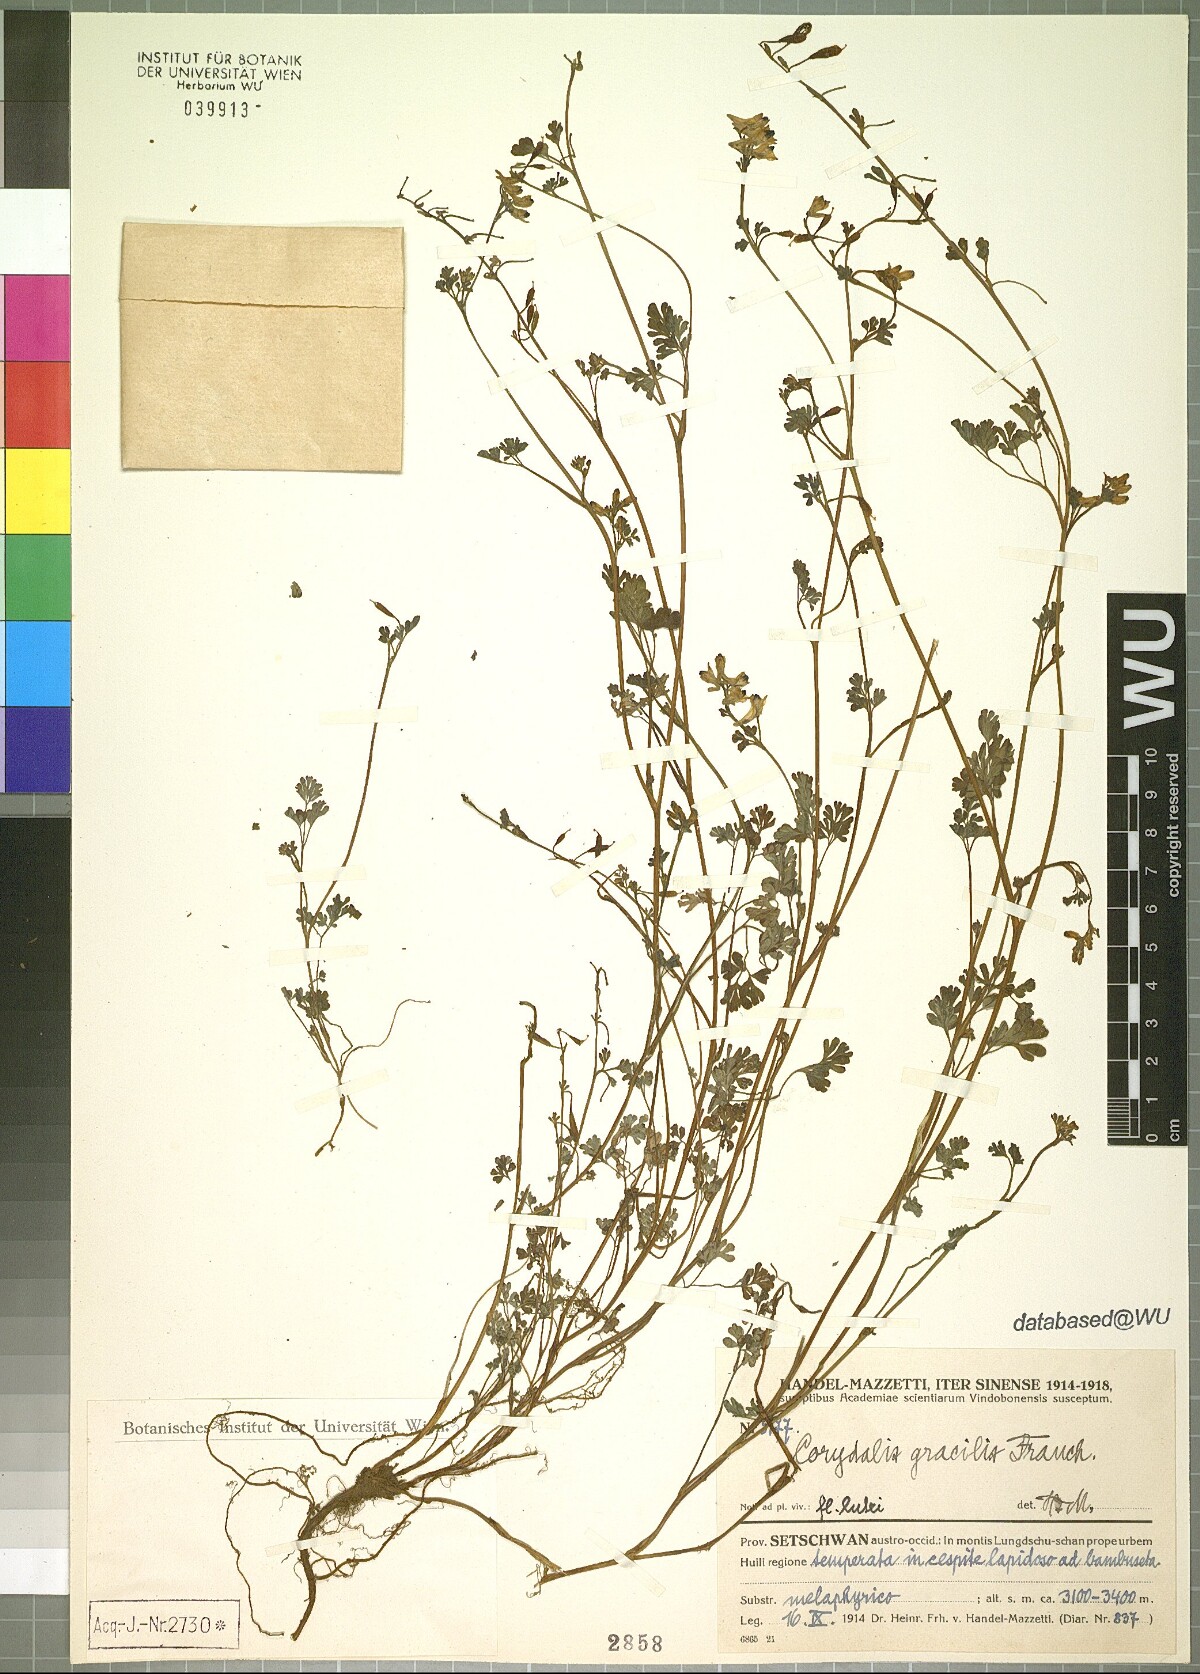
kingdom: Plantae
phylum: Tracheophyta
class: Magnoliopsida
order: Ranunculales
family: Papaveraceae
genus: Corydalis
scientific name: Corydalis gracillima
